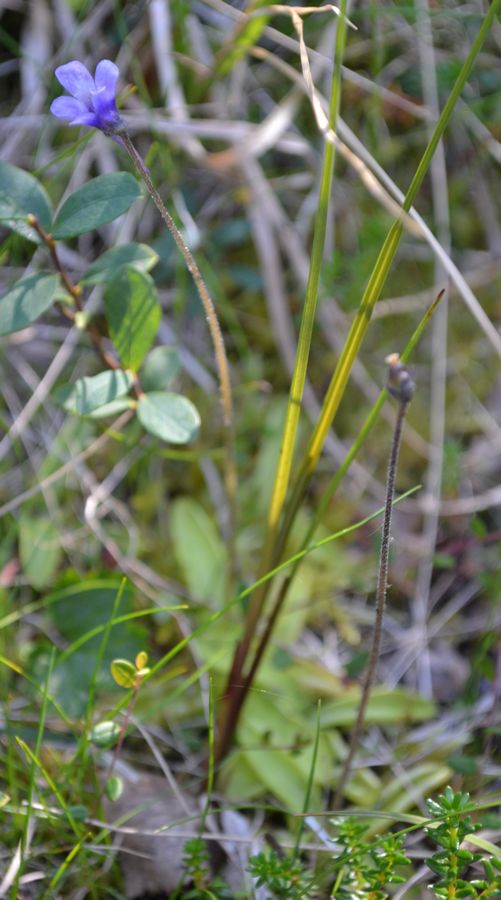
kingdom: Plantae
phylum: Tracheophyta
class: Magnoliopsida
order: Lamiales
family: Lentibulariaceae
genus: Pinguicula
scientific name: Pinguicula vulgaris
